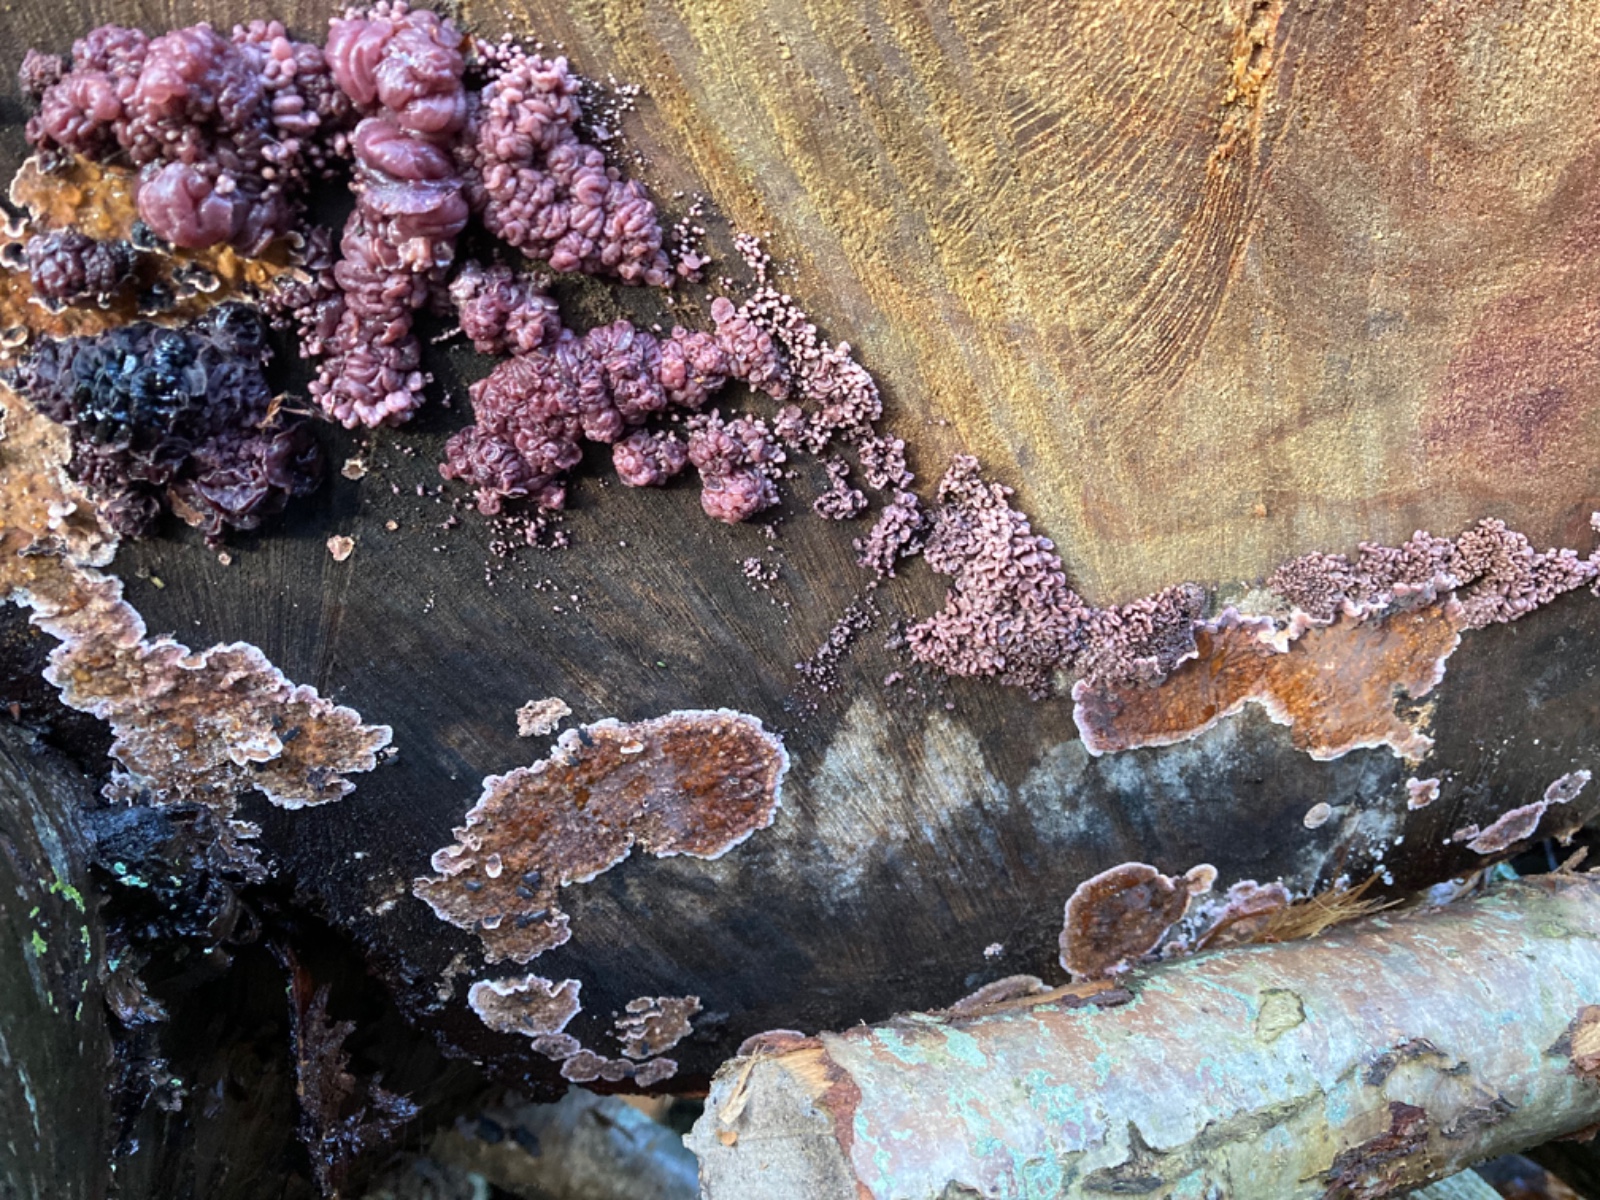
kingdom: Fungi
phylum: Ascomycota
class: Leotiomycetes
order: Helotiales
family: Gelatinodiscaceae
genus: Ascocoryne
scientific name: Ascocoryne sarcoides
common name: rødlilla sejskive
